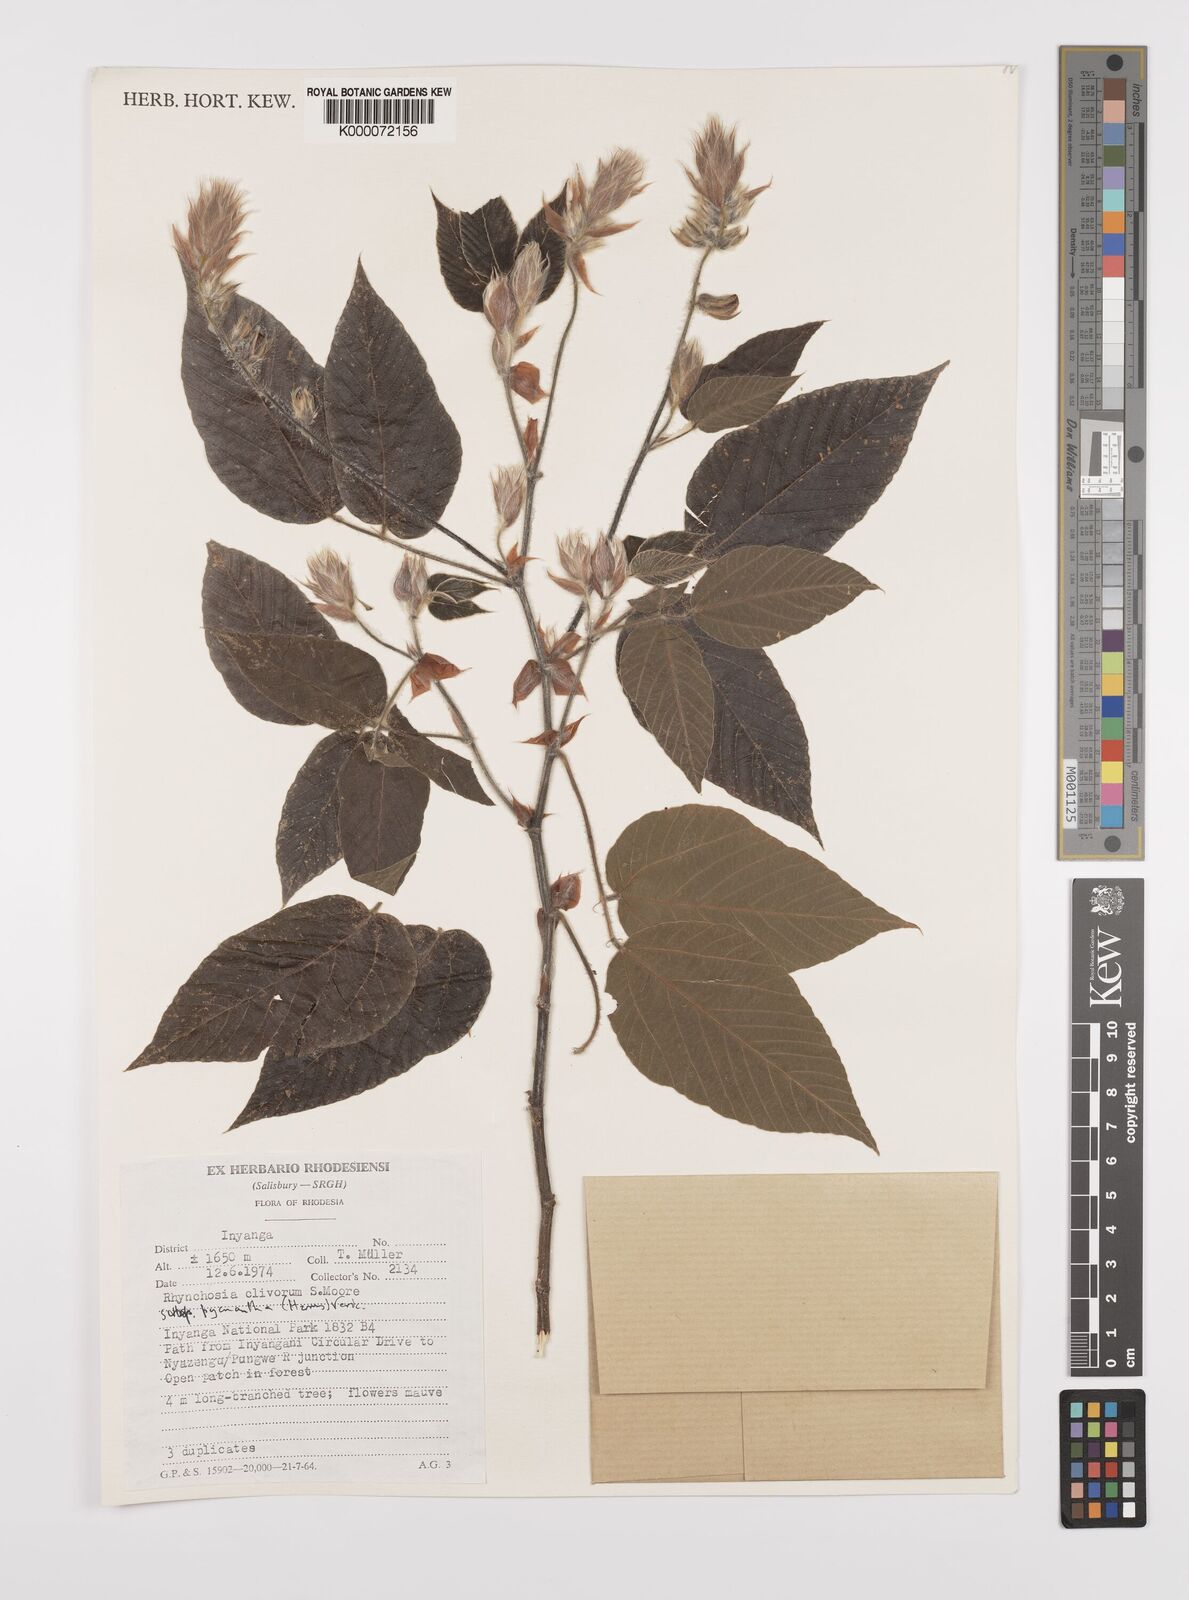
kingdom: Plantae
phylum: Tracheophyta
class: Magnoliopsida
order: Fabales
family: Fabaceae
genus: Rhynchosia
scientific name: Rhynchosia clivorum
